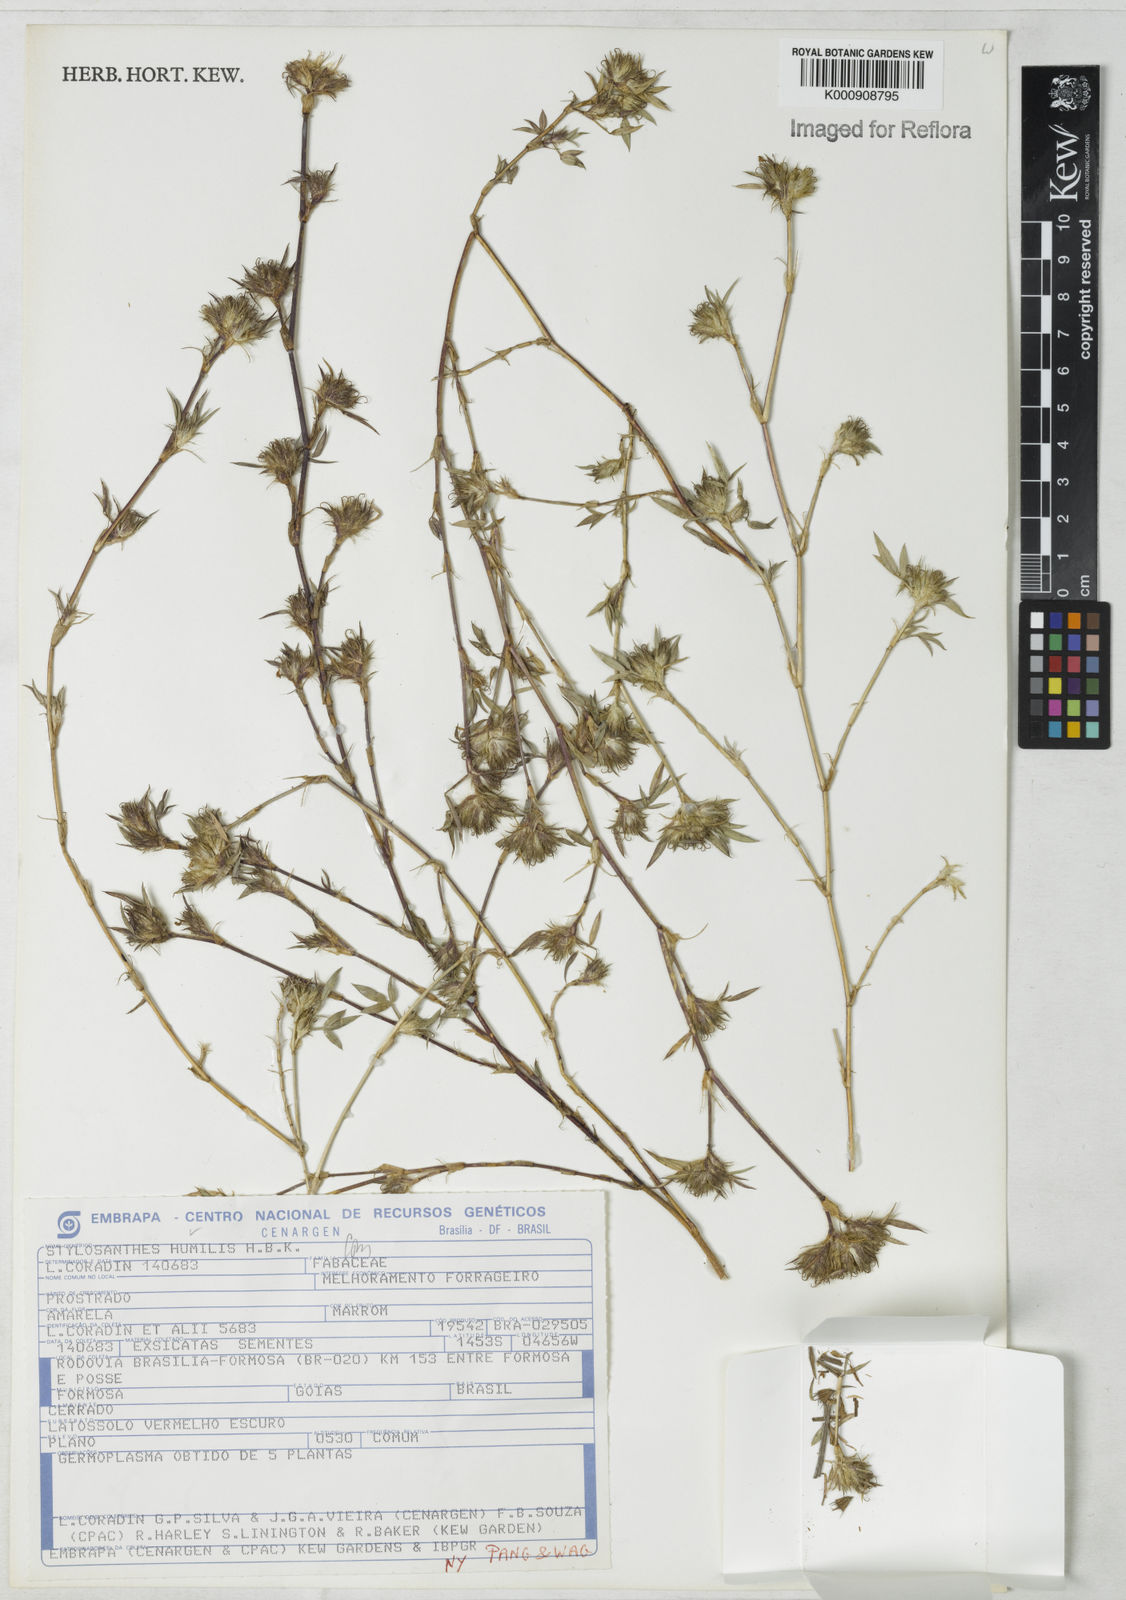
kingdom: Plantae
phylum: Tracheophyta
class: Magnoliopsida
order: Fabales
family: Fabaceae
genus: Stylosanthes
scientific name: Stylosanthes humilis
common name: Townsville stylo
